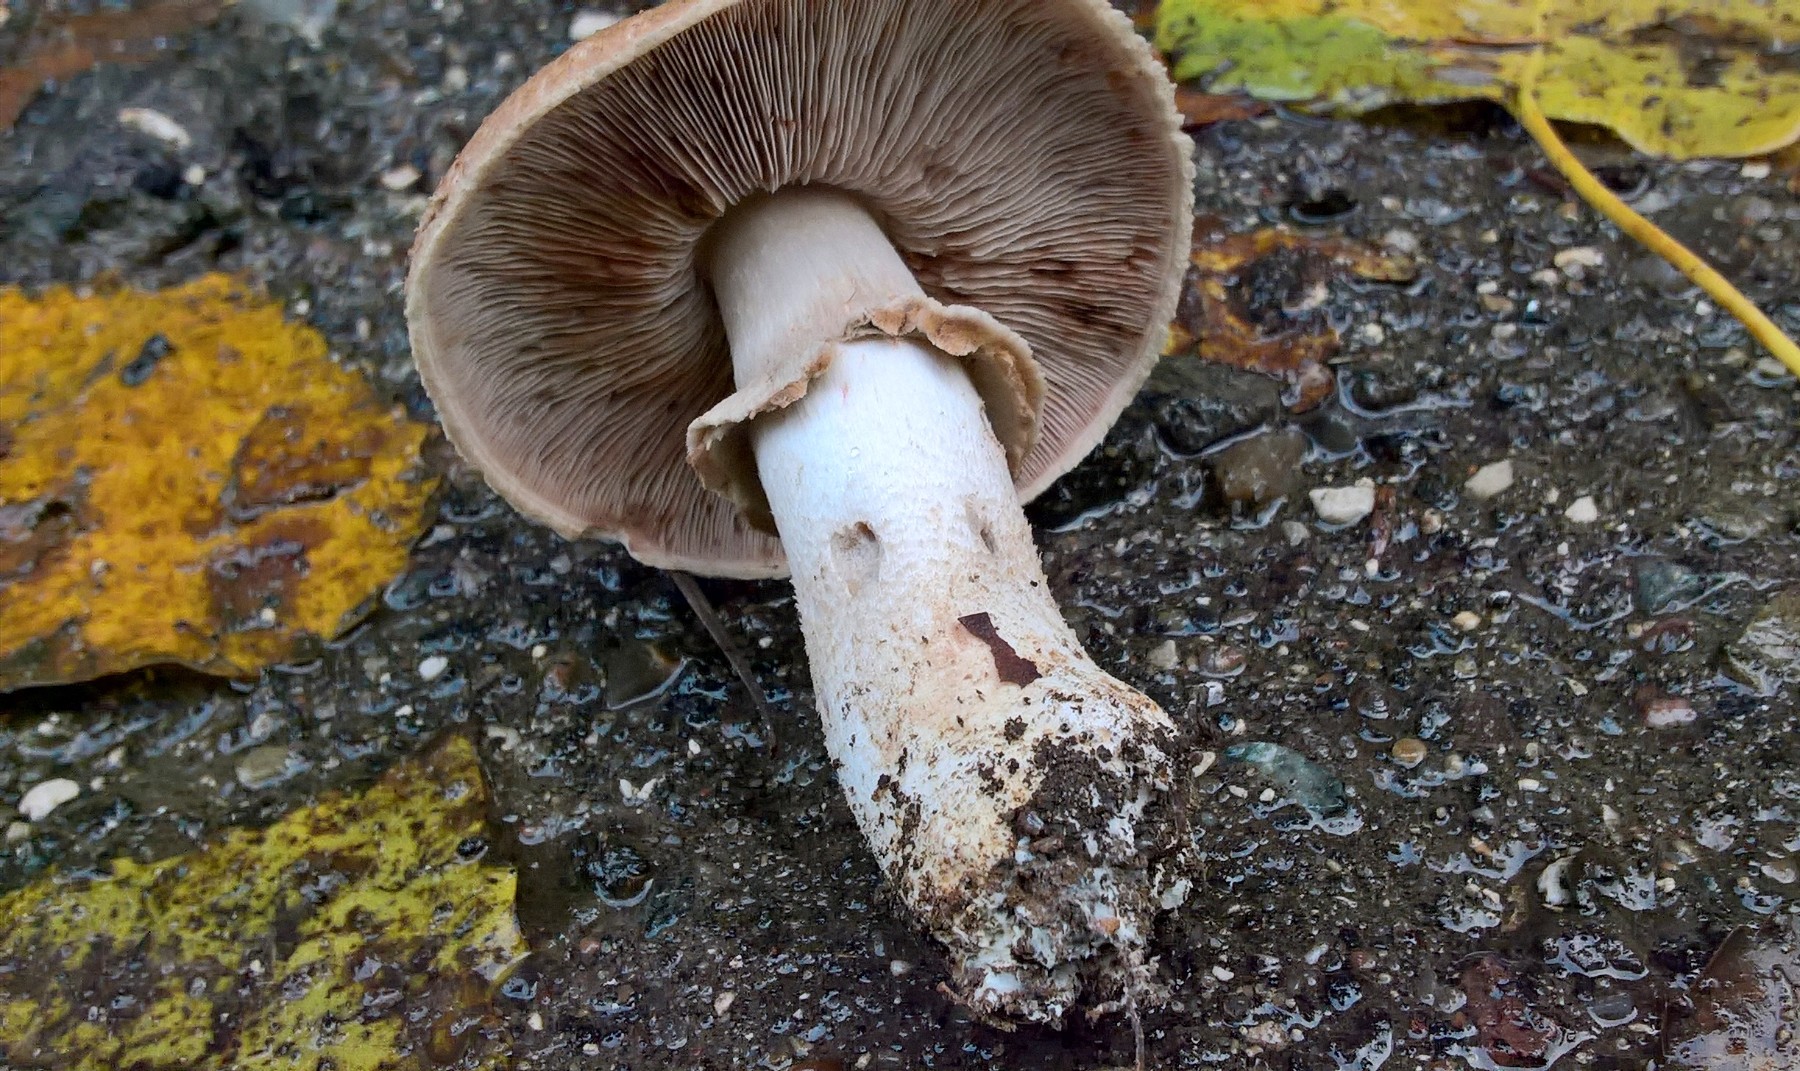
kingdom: Fungi
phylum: Basidiomycota
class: Agaricomycetes
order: Agaricales
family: Agaricaceae
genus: Agaricus
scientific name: Agaricus langei
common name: stor blod-champignon
